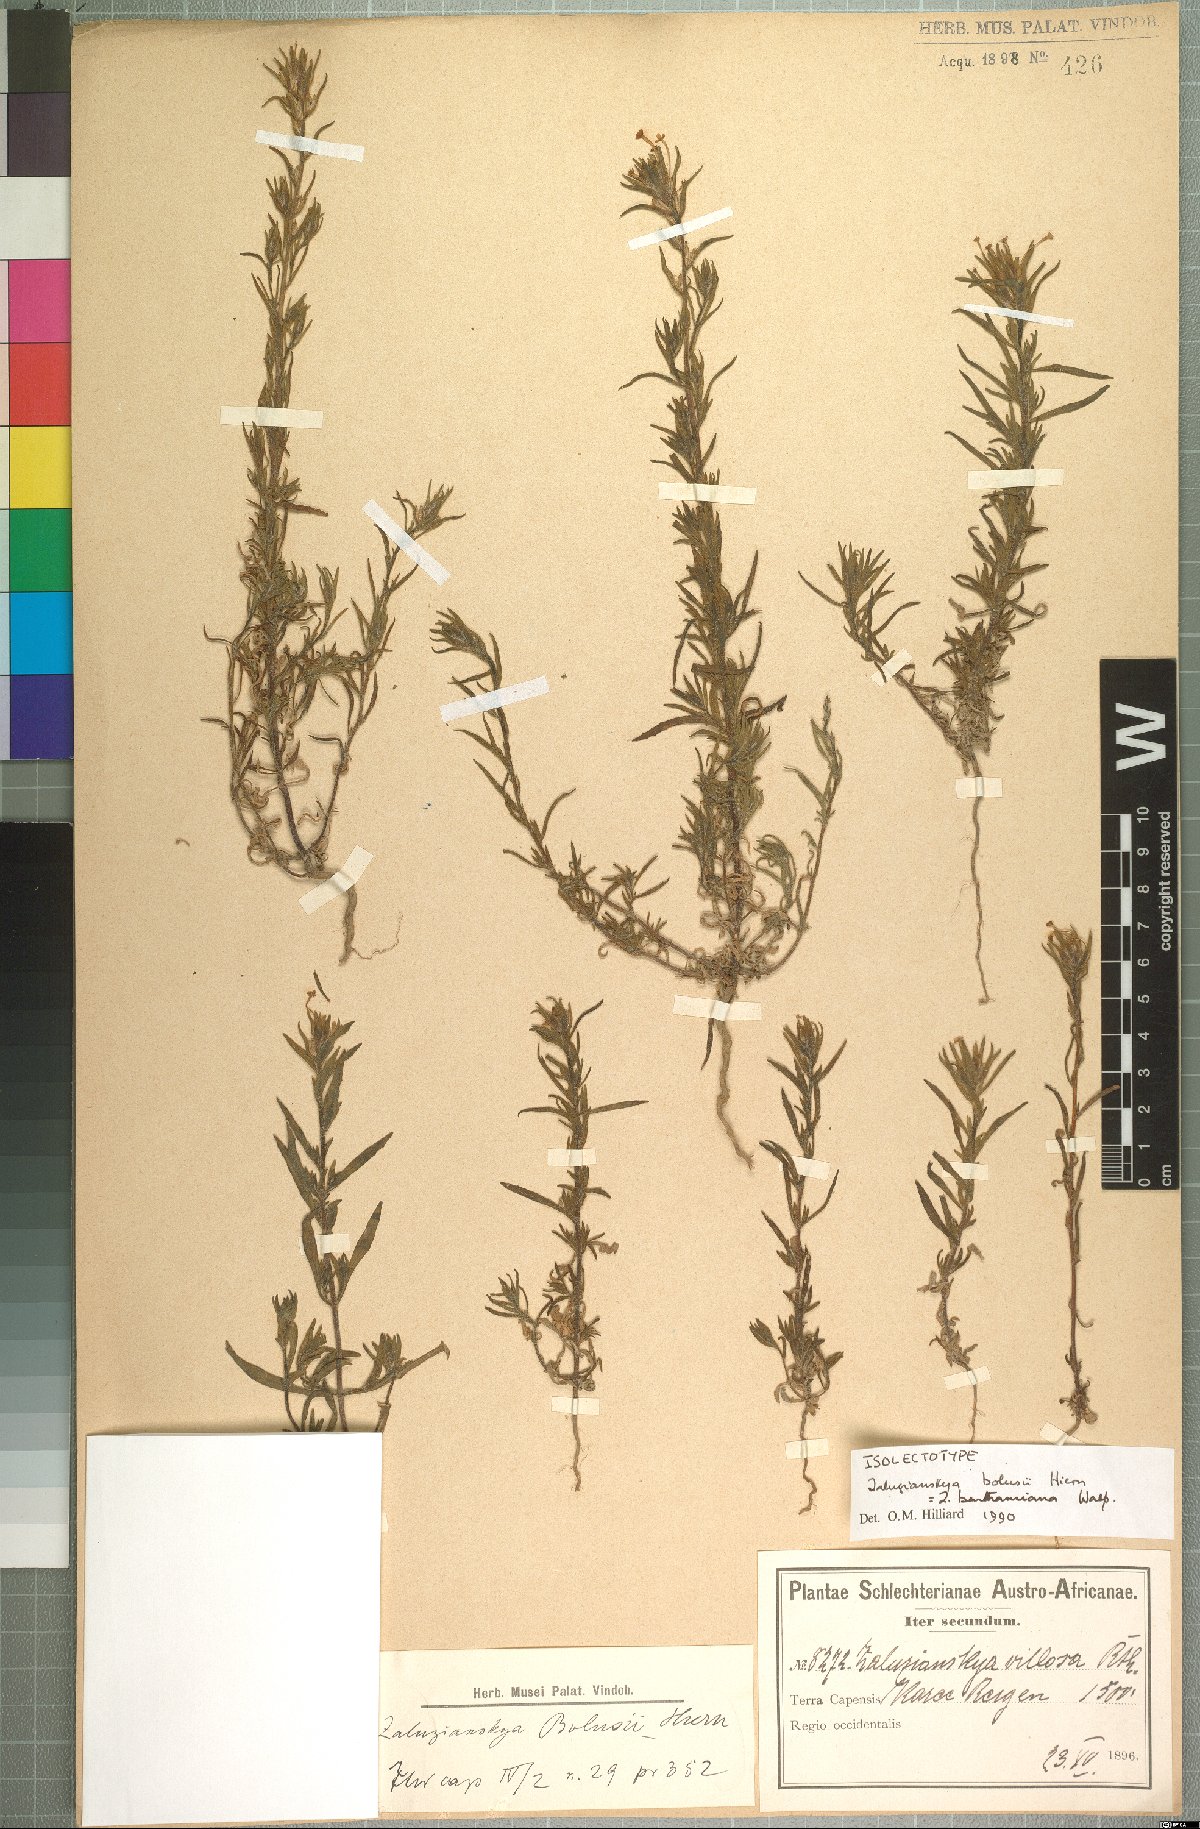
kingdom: Plantae
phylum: Tracheophyta
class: Magnoliopsida
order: Lamiales
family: Scrophulariaceae
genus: Zaluzianskya
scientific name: Zaluzianskya benthamiana
